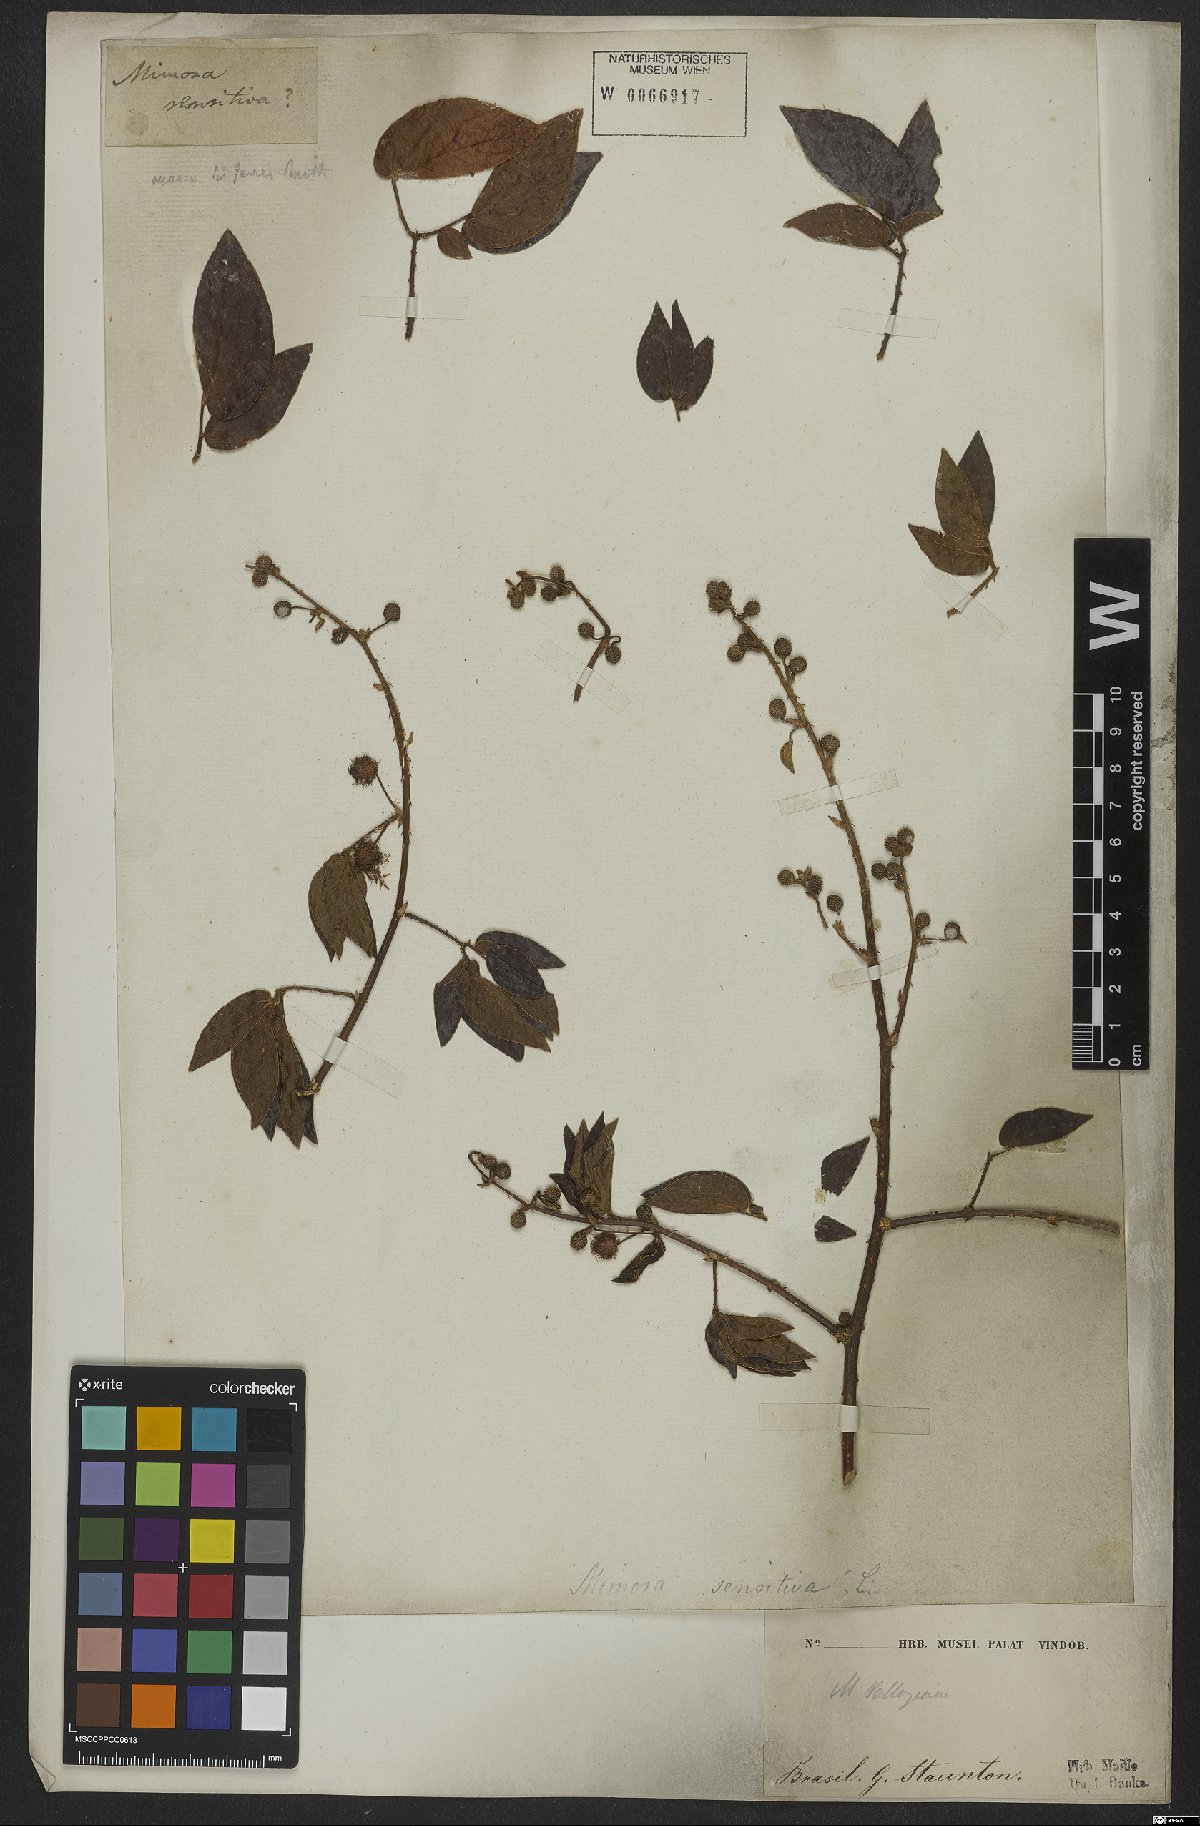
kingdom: Plantae
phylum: Tracheophyta
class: Magnoliopsida
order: Fabales
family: Fabaceae
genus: Mimosa
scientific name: Mimosa velloziana
